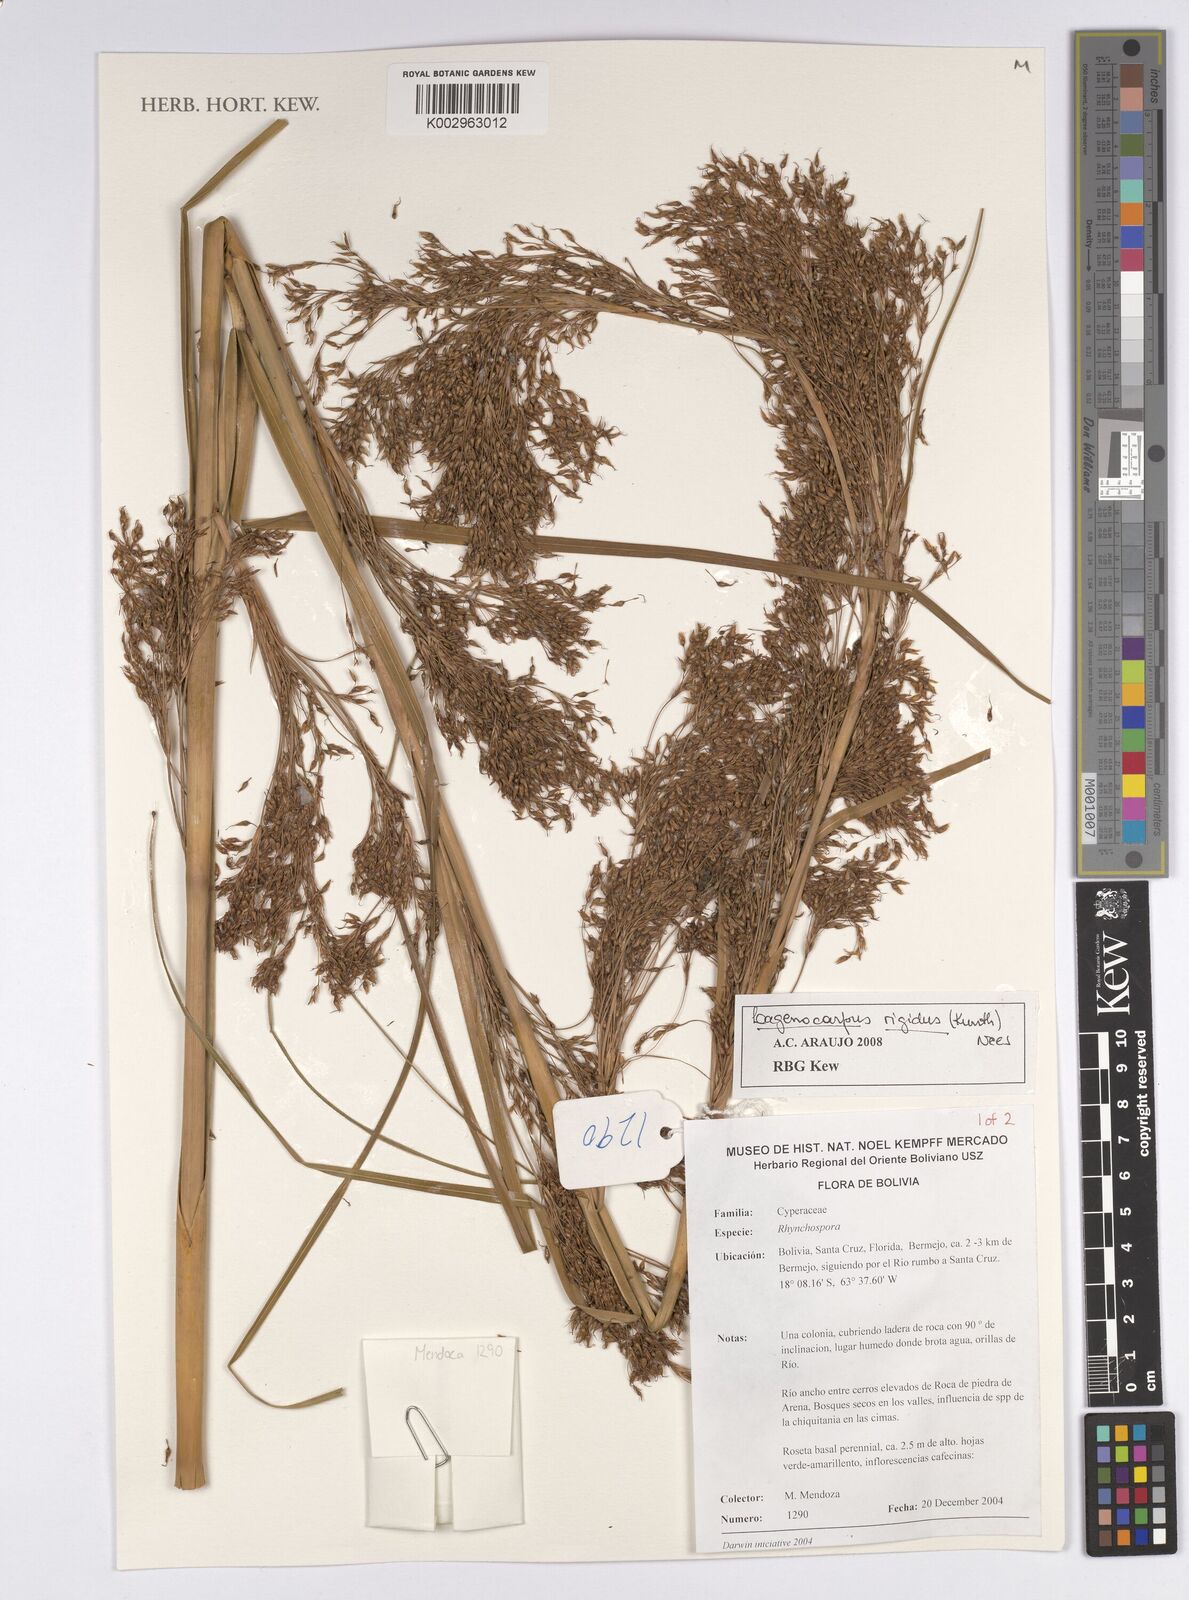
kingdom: Plantae
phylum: Tracheophyta
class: Liliopsida
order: Poales
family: Cyperaceae
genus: Lagenocarpus
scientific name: Lagenocarpus rigidus
